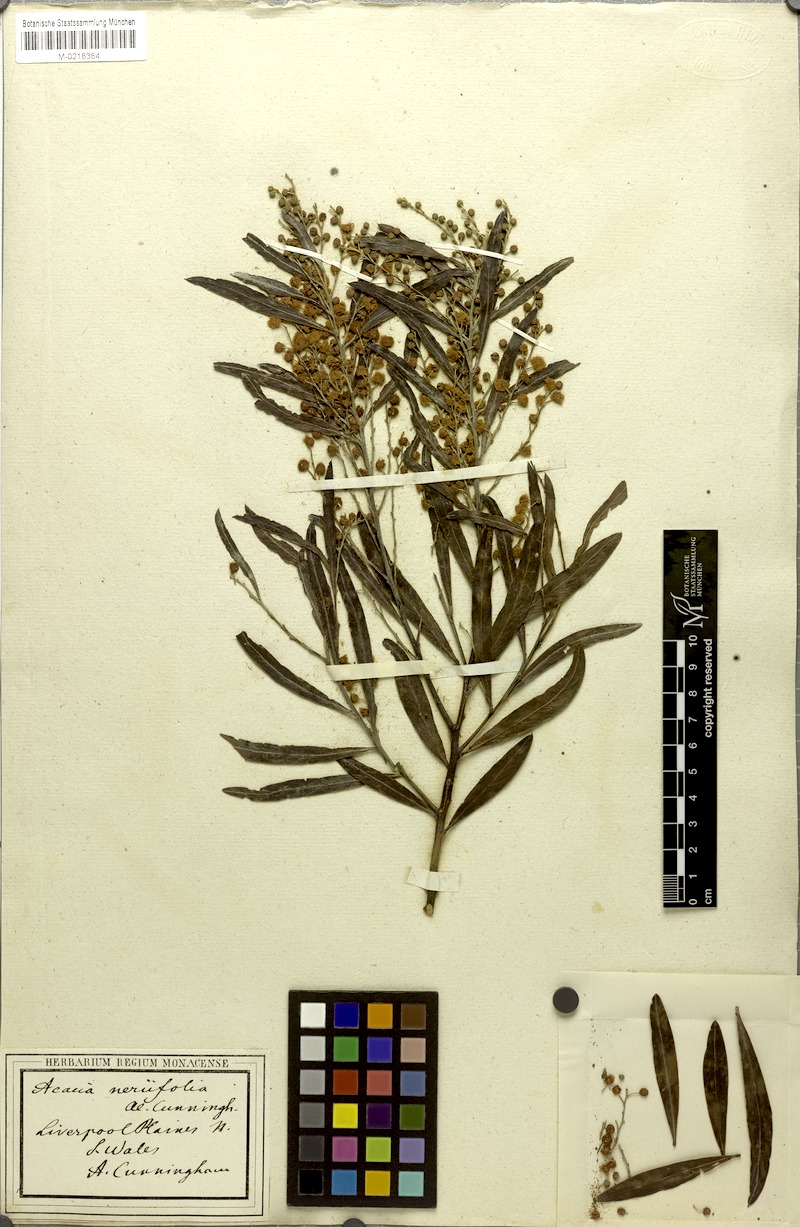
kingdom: Plantae
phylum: Tracheophyta
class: Magnoliopsida
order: Fabales
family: Fabaceae
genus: Acacia
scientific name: Acacia neriifolia
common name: Oleander wattle
